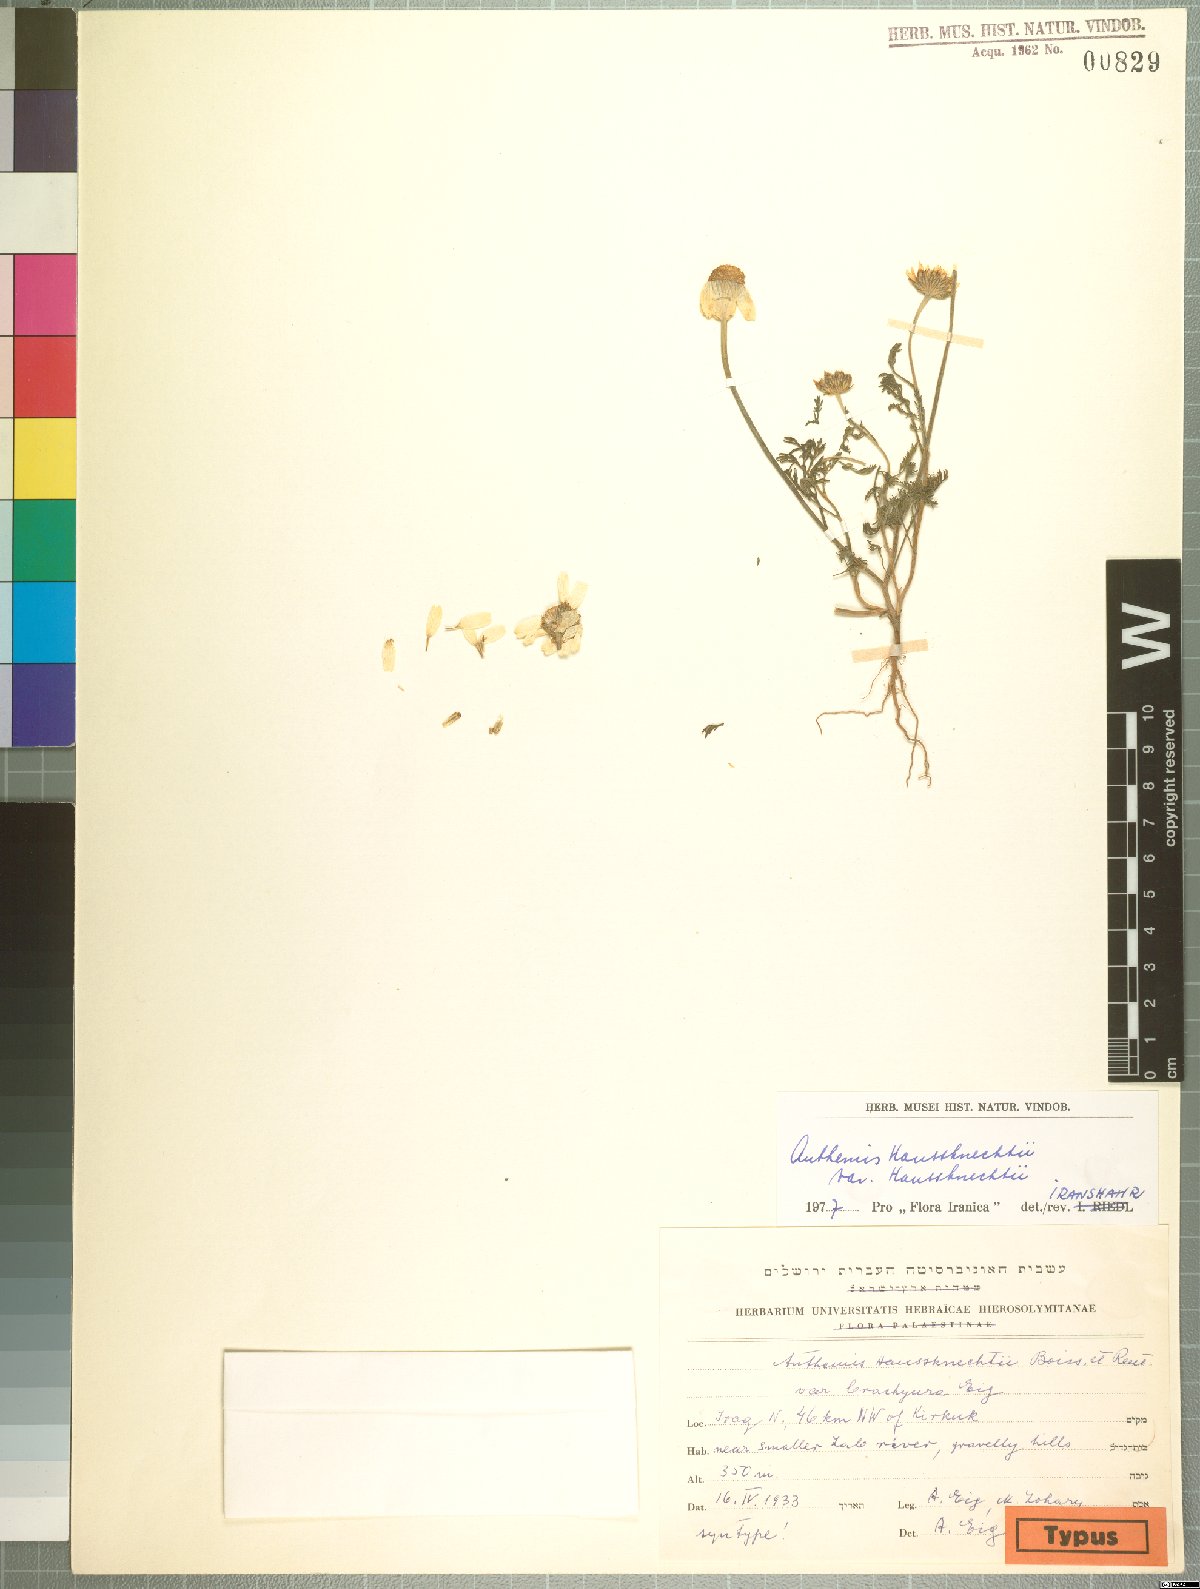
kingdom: Plantae
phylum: Tracheophyta
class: Magnoliopsida
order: Asterales
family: Asteraceae
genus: Anthemis
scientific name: Anthemis haussknechtii
